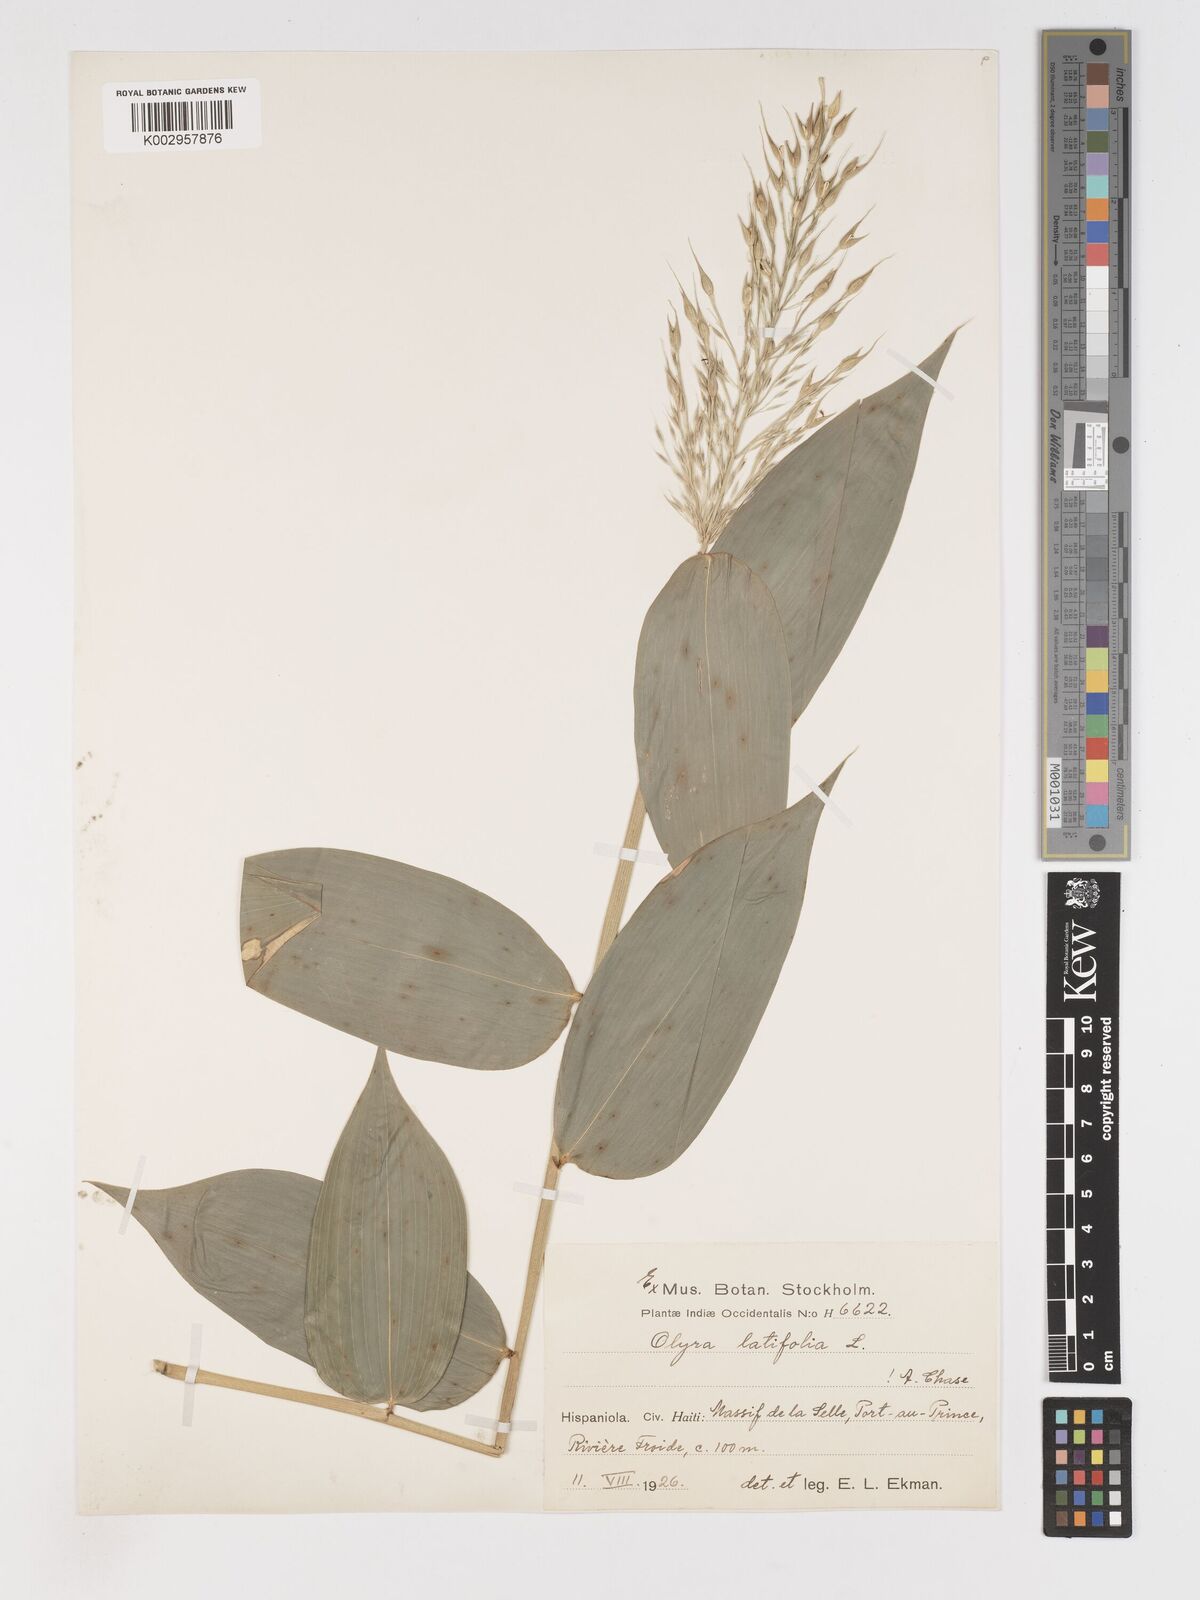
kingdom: Plantae
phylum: Tracheophyta
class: Liliopsida
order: Poales
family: Poaceae
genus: Olyra
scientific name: Olyra latifolia
